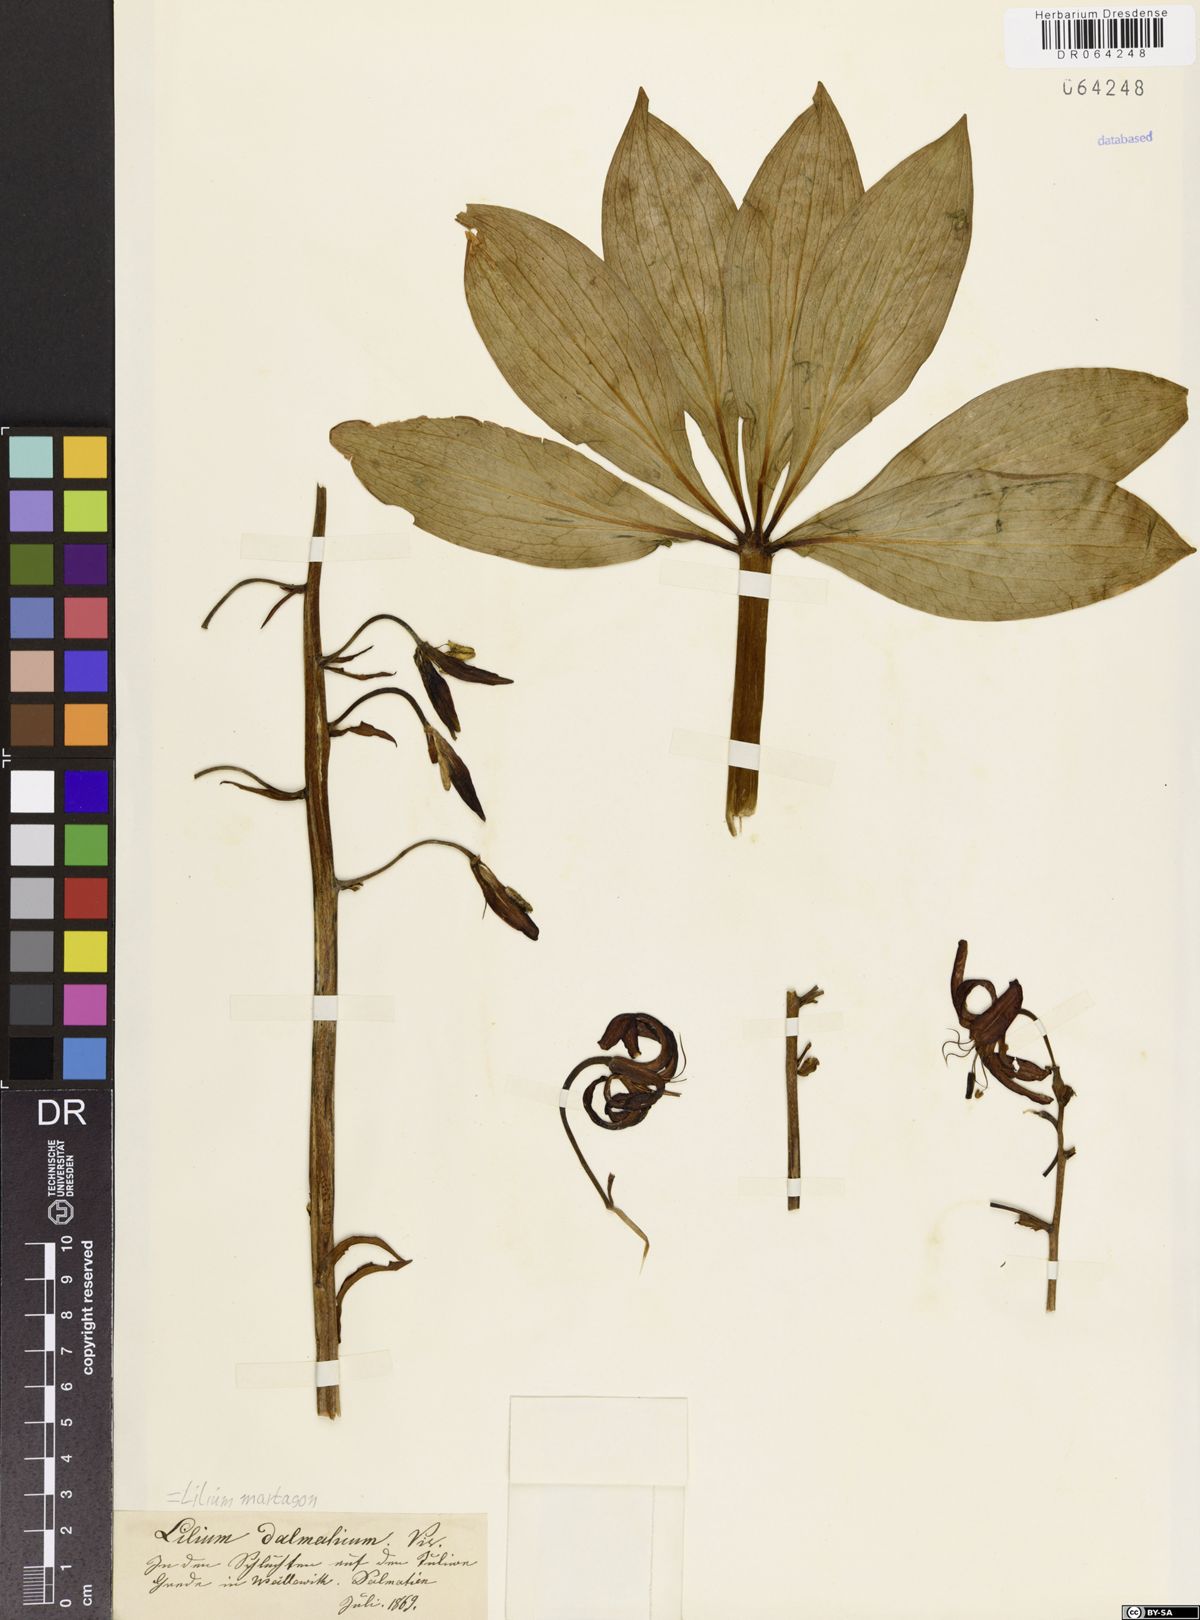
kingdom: Plantae
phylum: Tracheophyta
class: Liliopsida
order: Liliales
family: Liliaceae
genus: Lilium
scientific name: Lilium martagon
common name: Martagon lily
